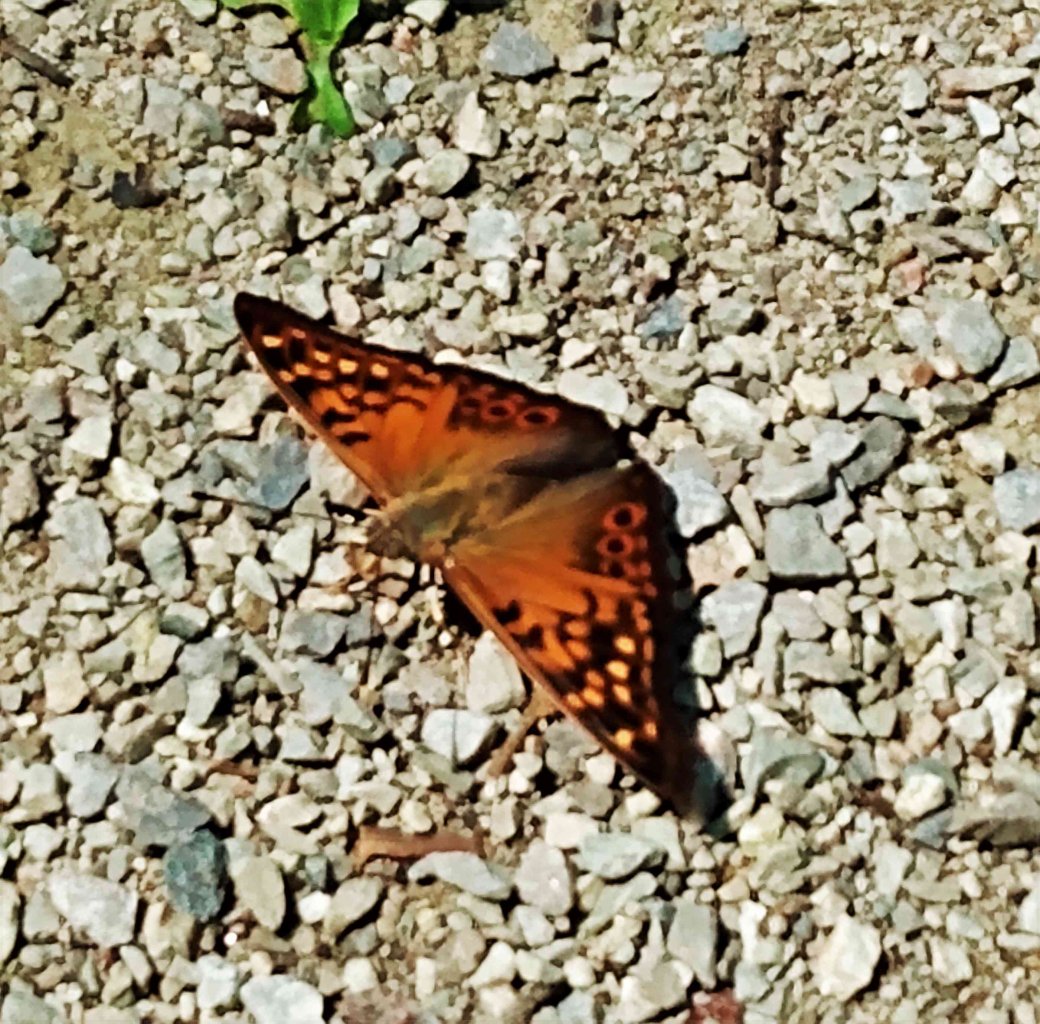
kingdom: Animalia
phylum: Arthropoda
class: Insecta
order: Lepidoptera
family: Nymphalidae
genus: Asterocampa
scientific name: Asterocampa clyton
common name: Tawny Emperor
